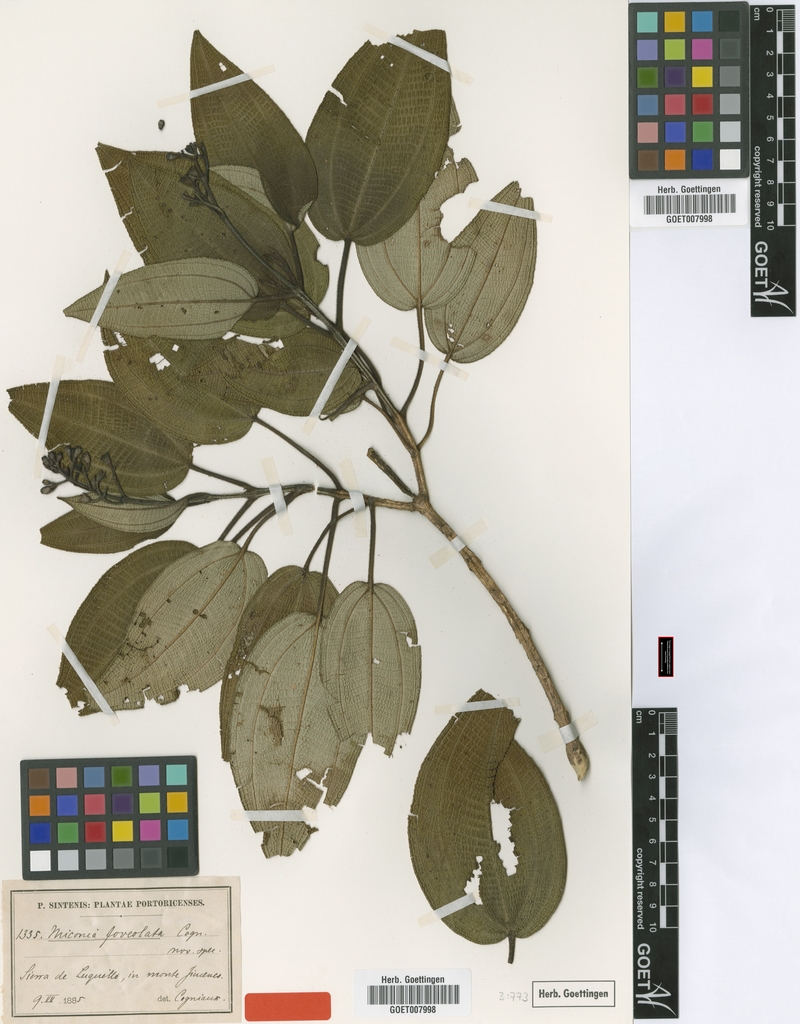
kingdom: Plantae
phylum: Tracheophyta
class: Magnoliopsida
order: Myrtales
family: Melastomataceae
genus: Miconia
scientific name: Miconia foveolata
